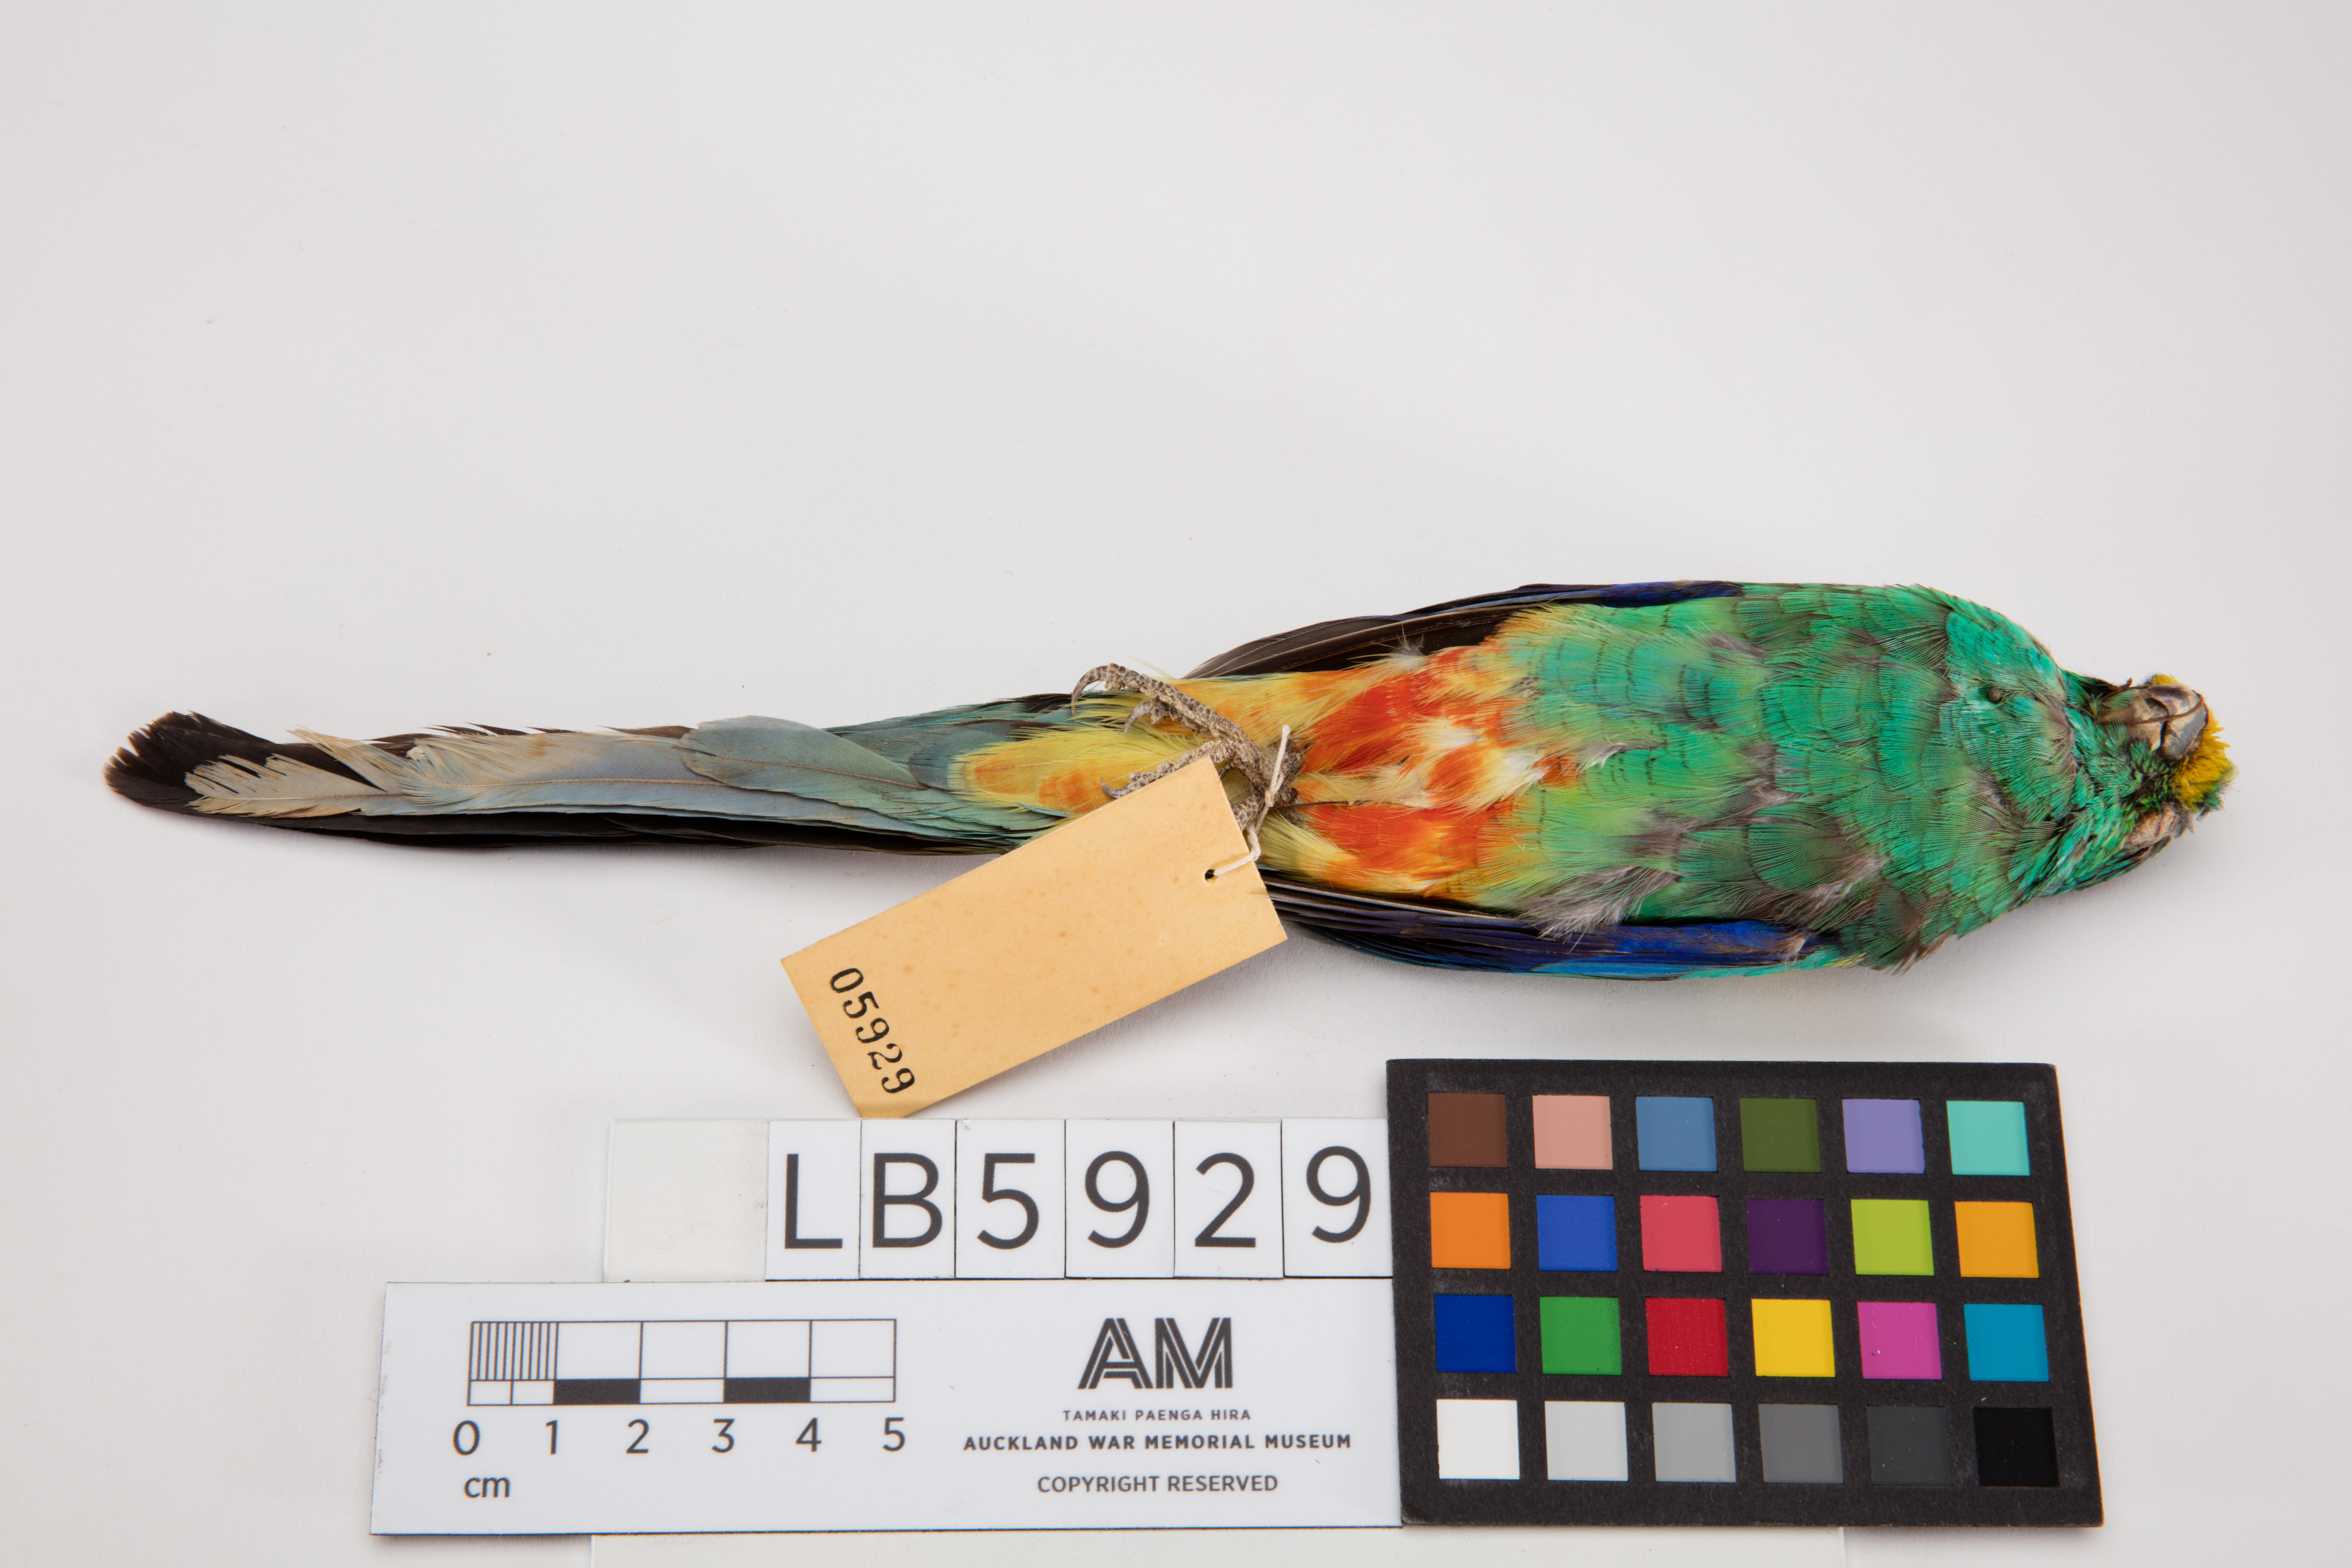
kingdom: Animalia
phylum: Chordata
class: Aves
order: Psittaciformes
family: Psittacidae
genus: Psephotus
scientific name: Psephotus varius
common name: Mulga parrot
